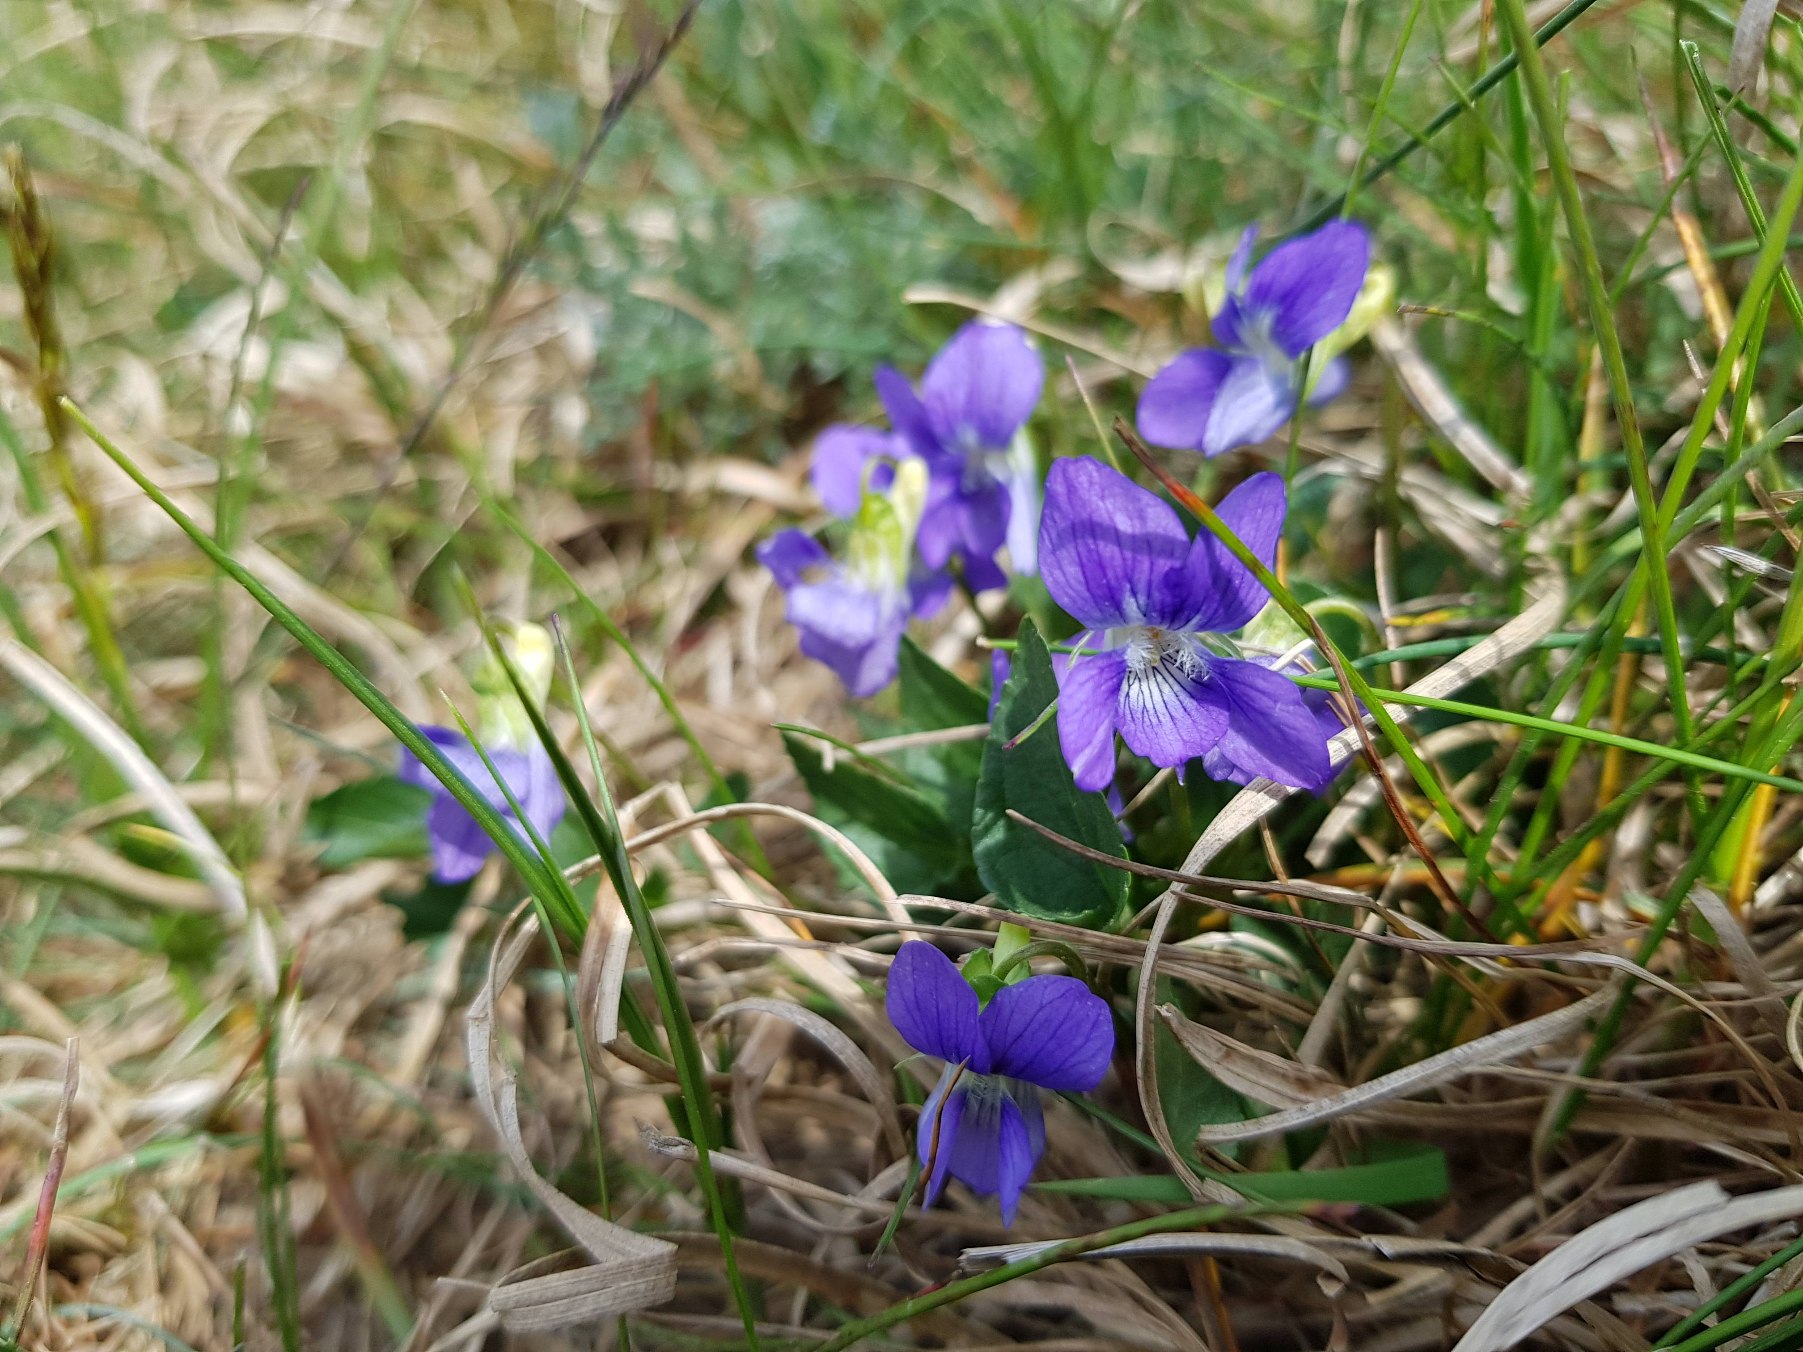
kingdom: Plantae
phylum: Tracheophyta
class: Magnoliopsida
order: Malpighiales
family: Violaceae
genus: Viola
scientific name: Viola canina
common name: Hunde-viol
